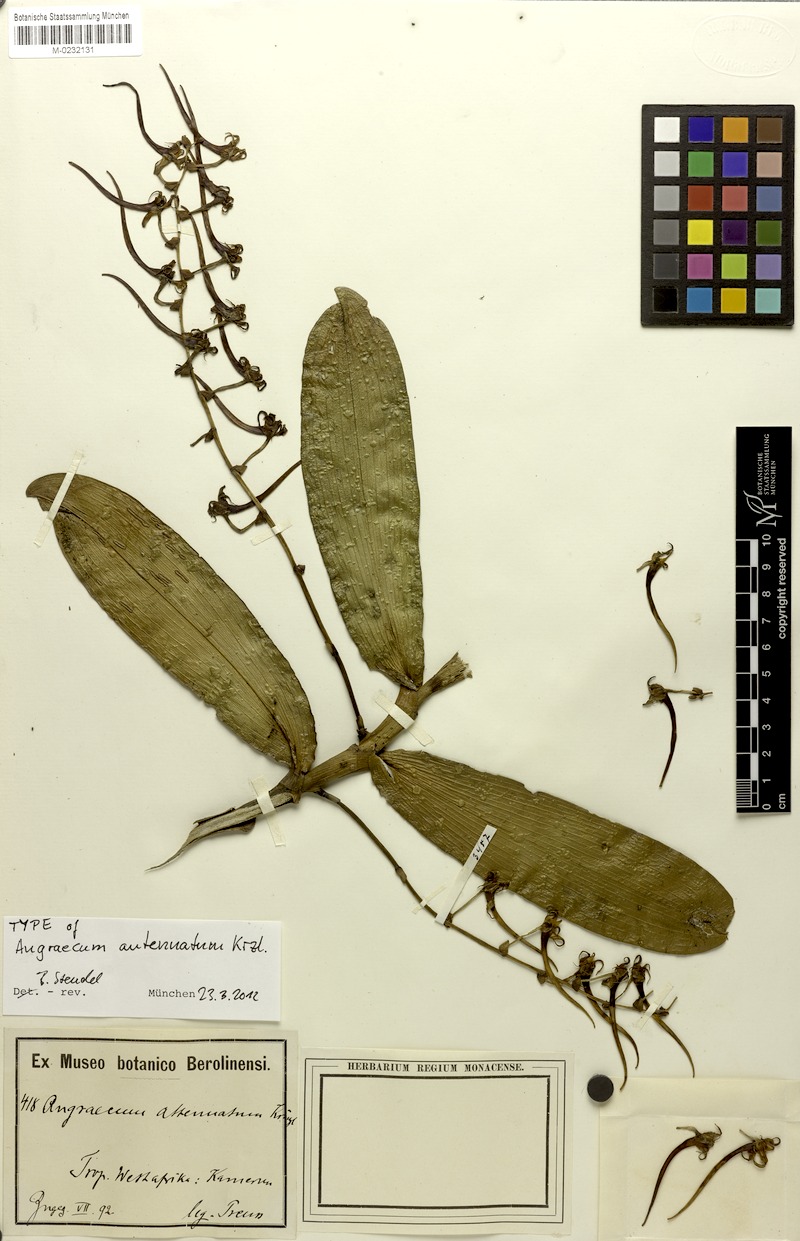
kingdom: Plantae
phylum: Tracheophyta
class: Liliopsida
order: Asparagales
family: Orchidaceae
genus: Cyrtorchis
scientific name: Cyrtorchis monteiroae
